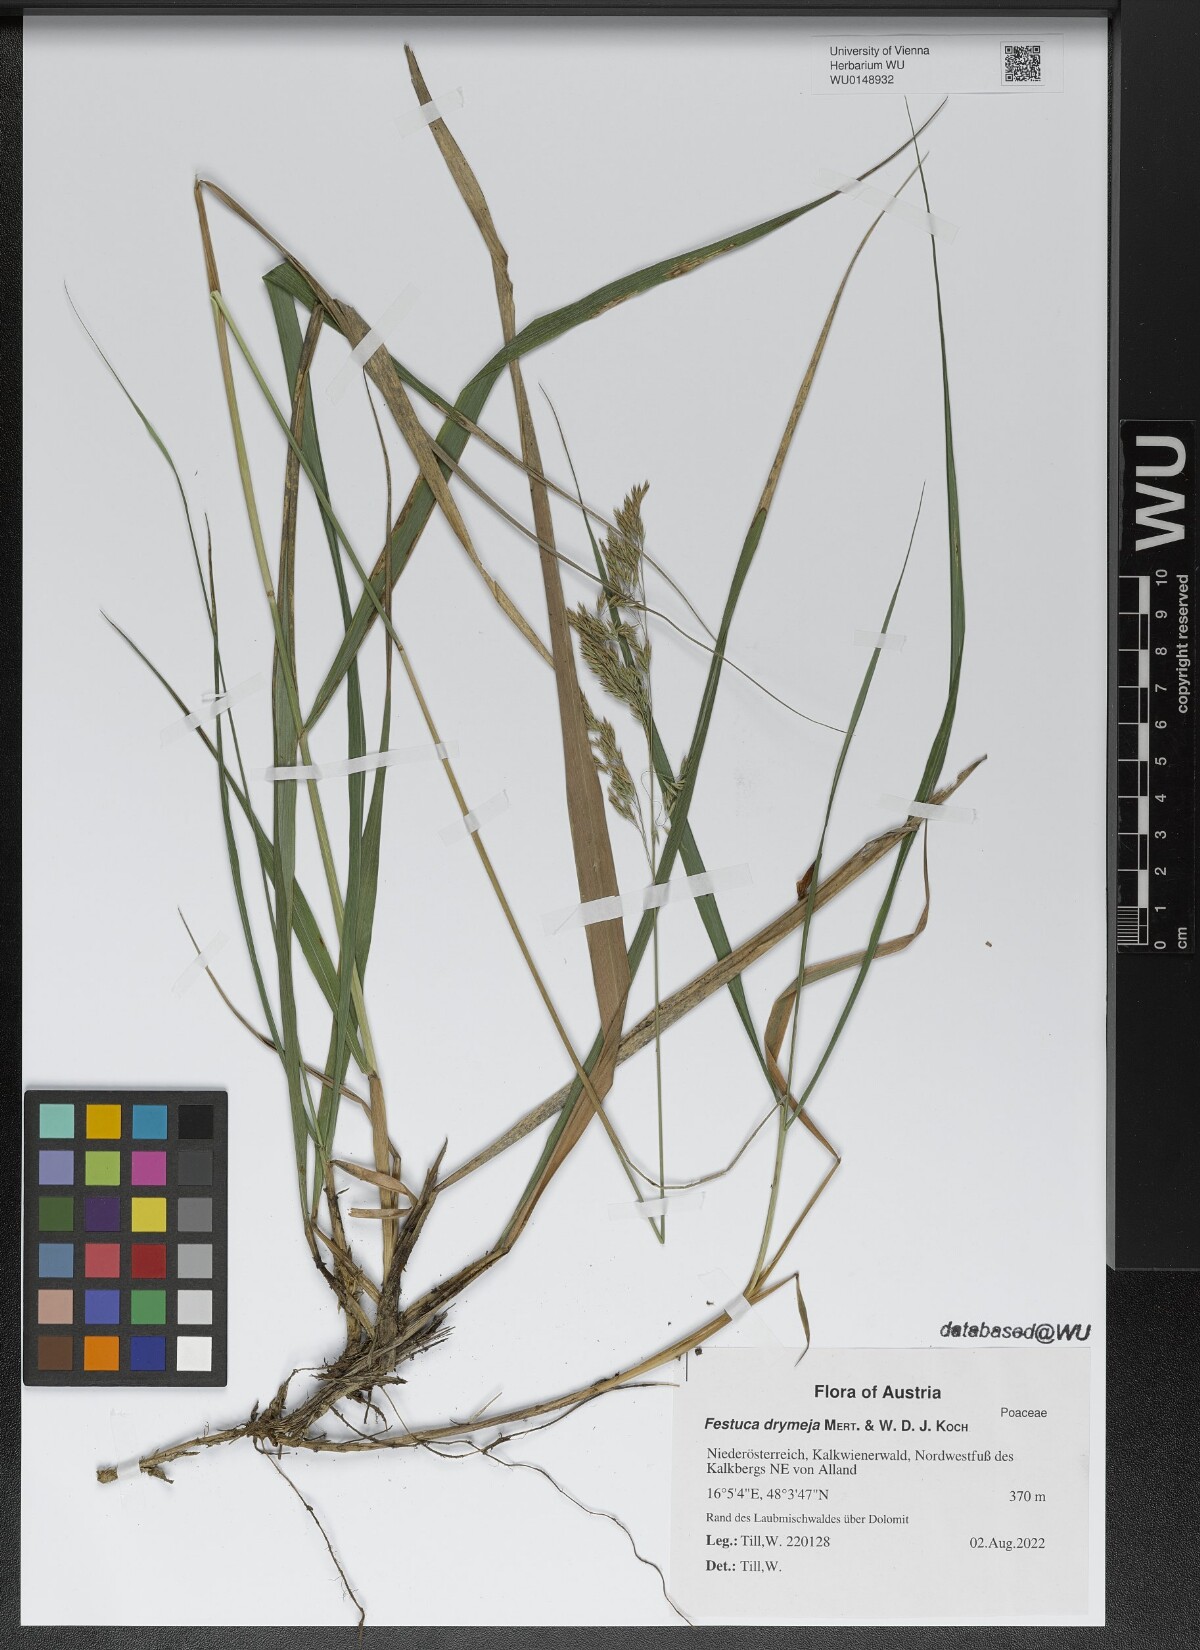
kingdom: Plantae
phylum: Tracheophyta
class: Liliopsida
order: Poales
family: Poaceae
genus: Festuca
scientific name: Festuca drymeja
